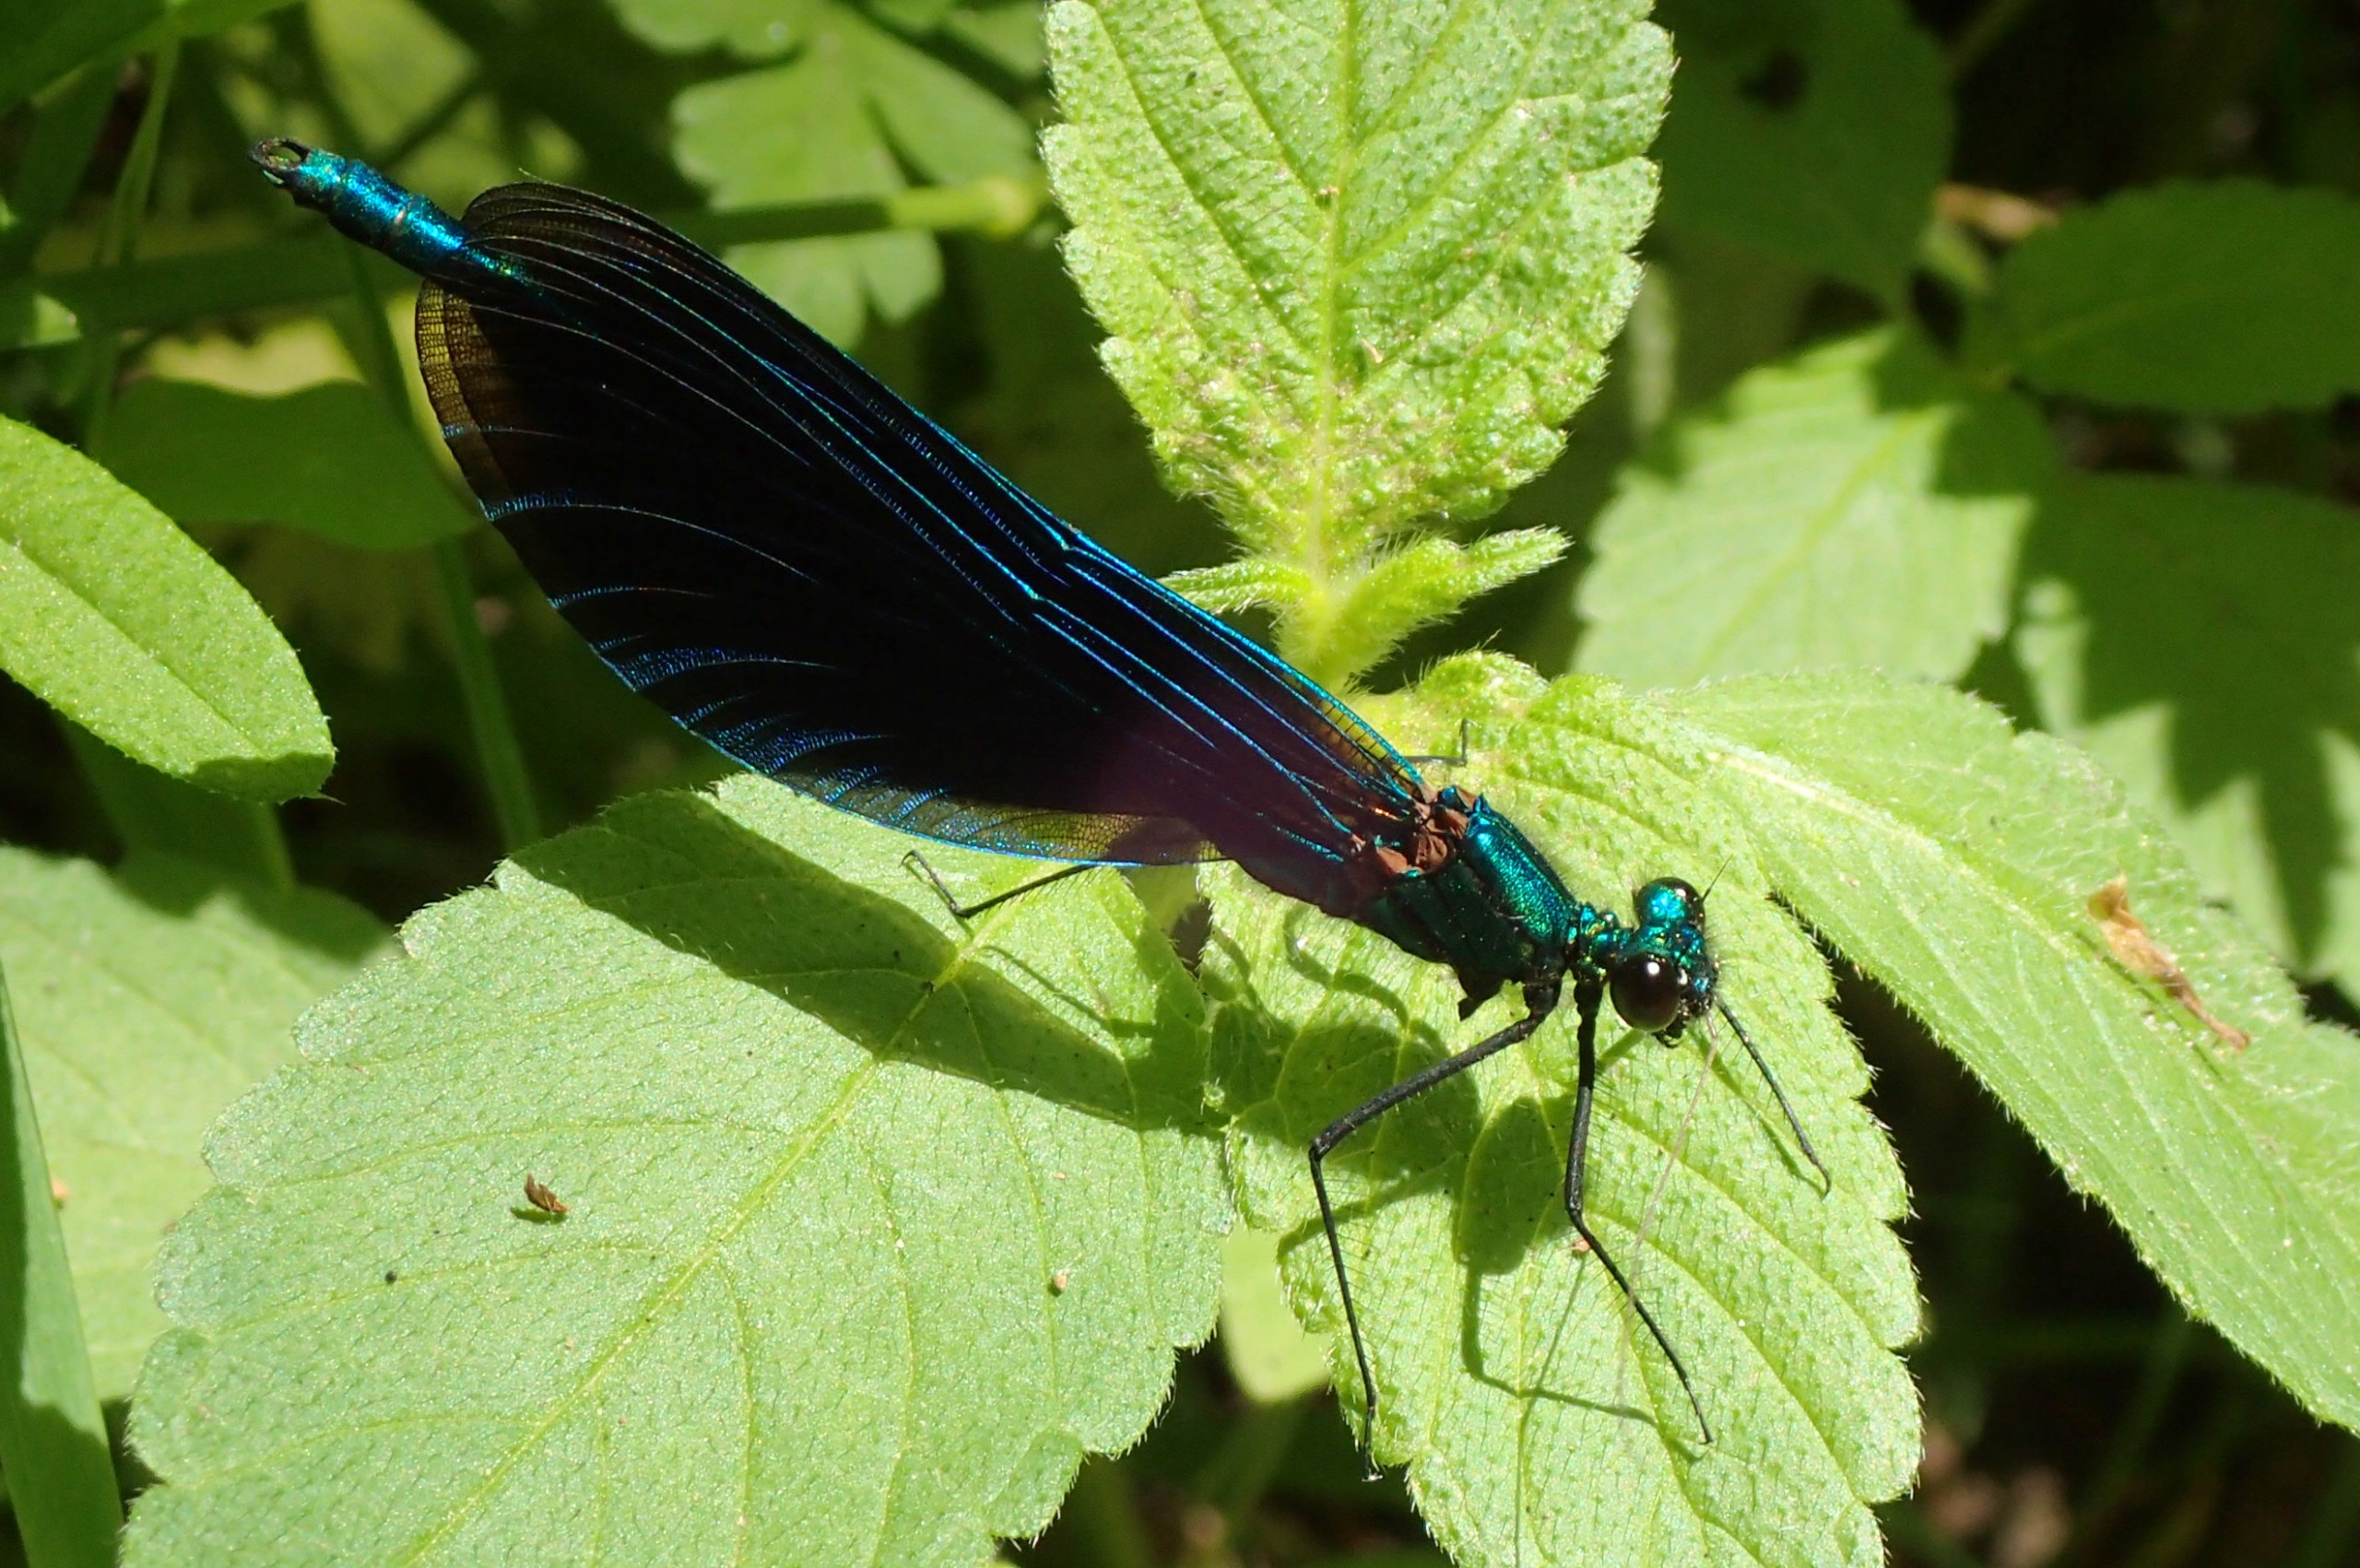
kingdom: Animalia
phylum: Arthropoda
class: Insecta
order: Odonata
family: Calopterygidae
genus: Calopteryx
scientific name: Calopteryx virgo
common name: Blåvinget pragtvandnymfe
